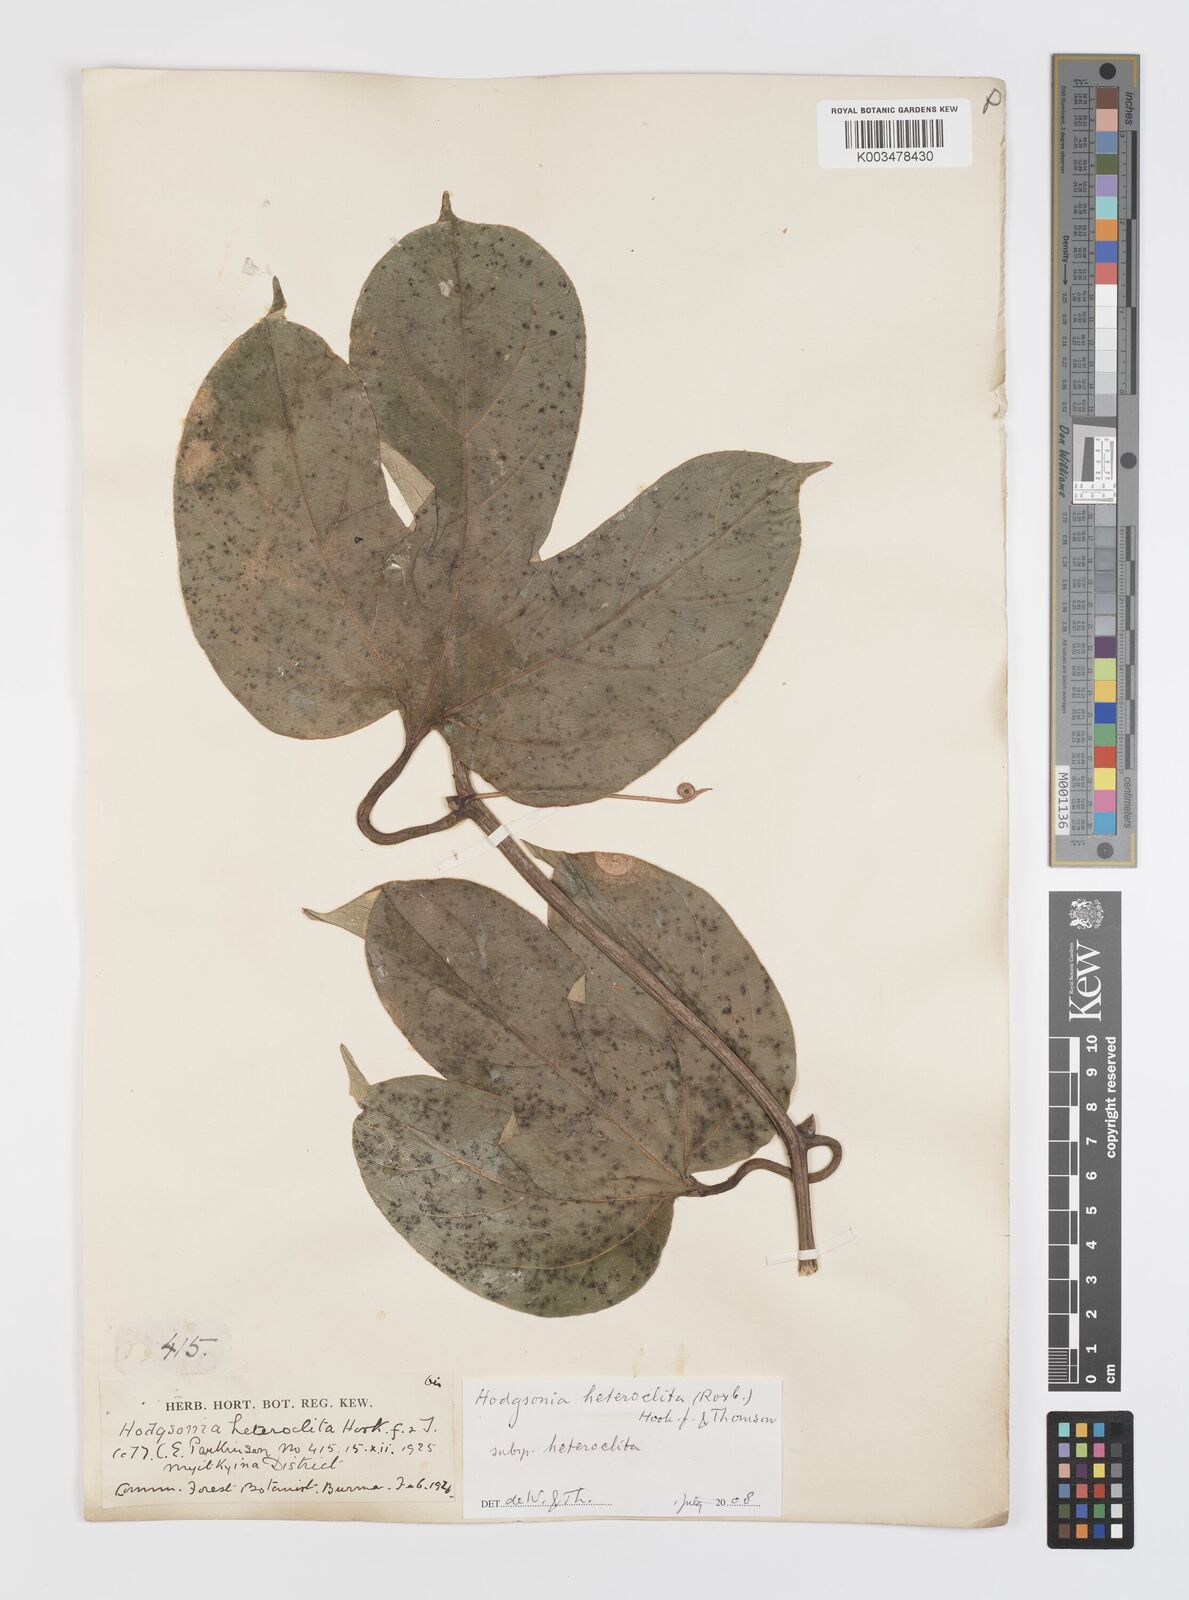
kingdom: Plantae
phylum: Tracheophyta
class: Magnoliopsida
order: Cucurbitales
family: Cucurbitaceae
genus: Hodgsonia
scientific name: Hodgsonia macrocarpa
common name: Chinese lardfruit
